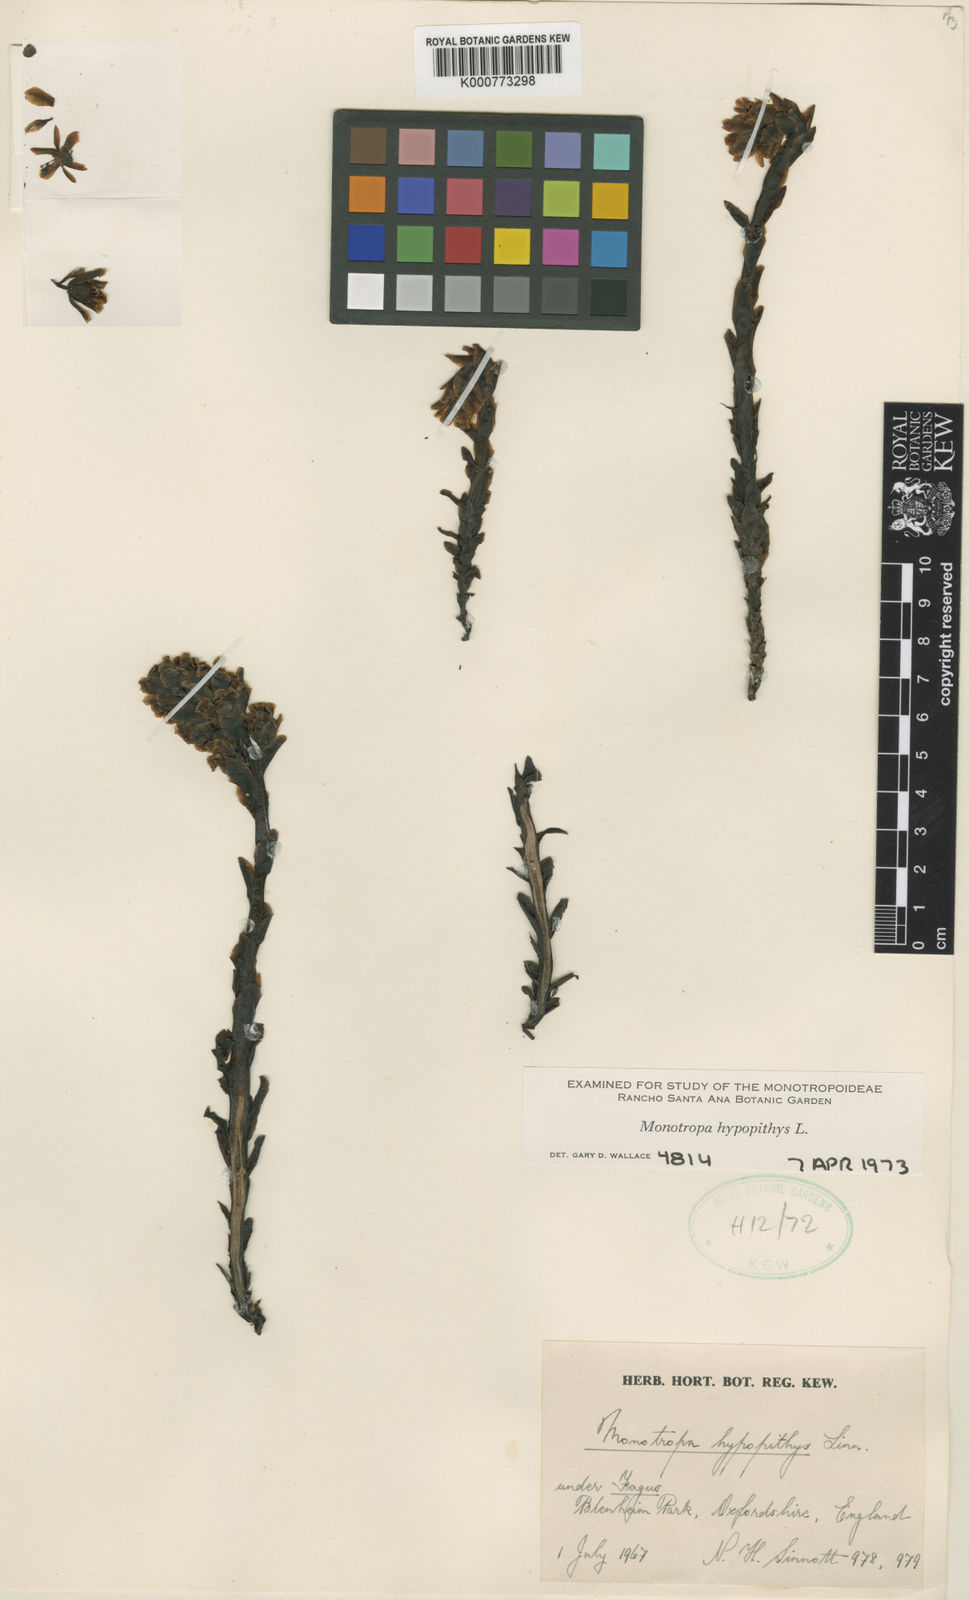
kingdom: Plantae
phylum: Tracheophyta
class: Magnoliopsida
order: Ericales
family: Ericaceae
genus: Monotropa
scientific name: Monotropa
